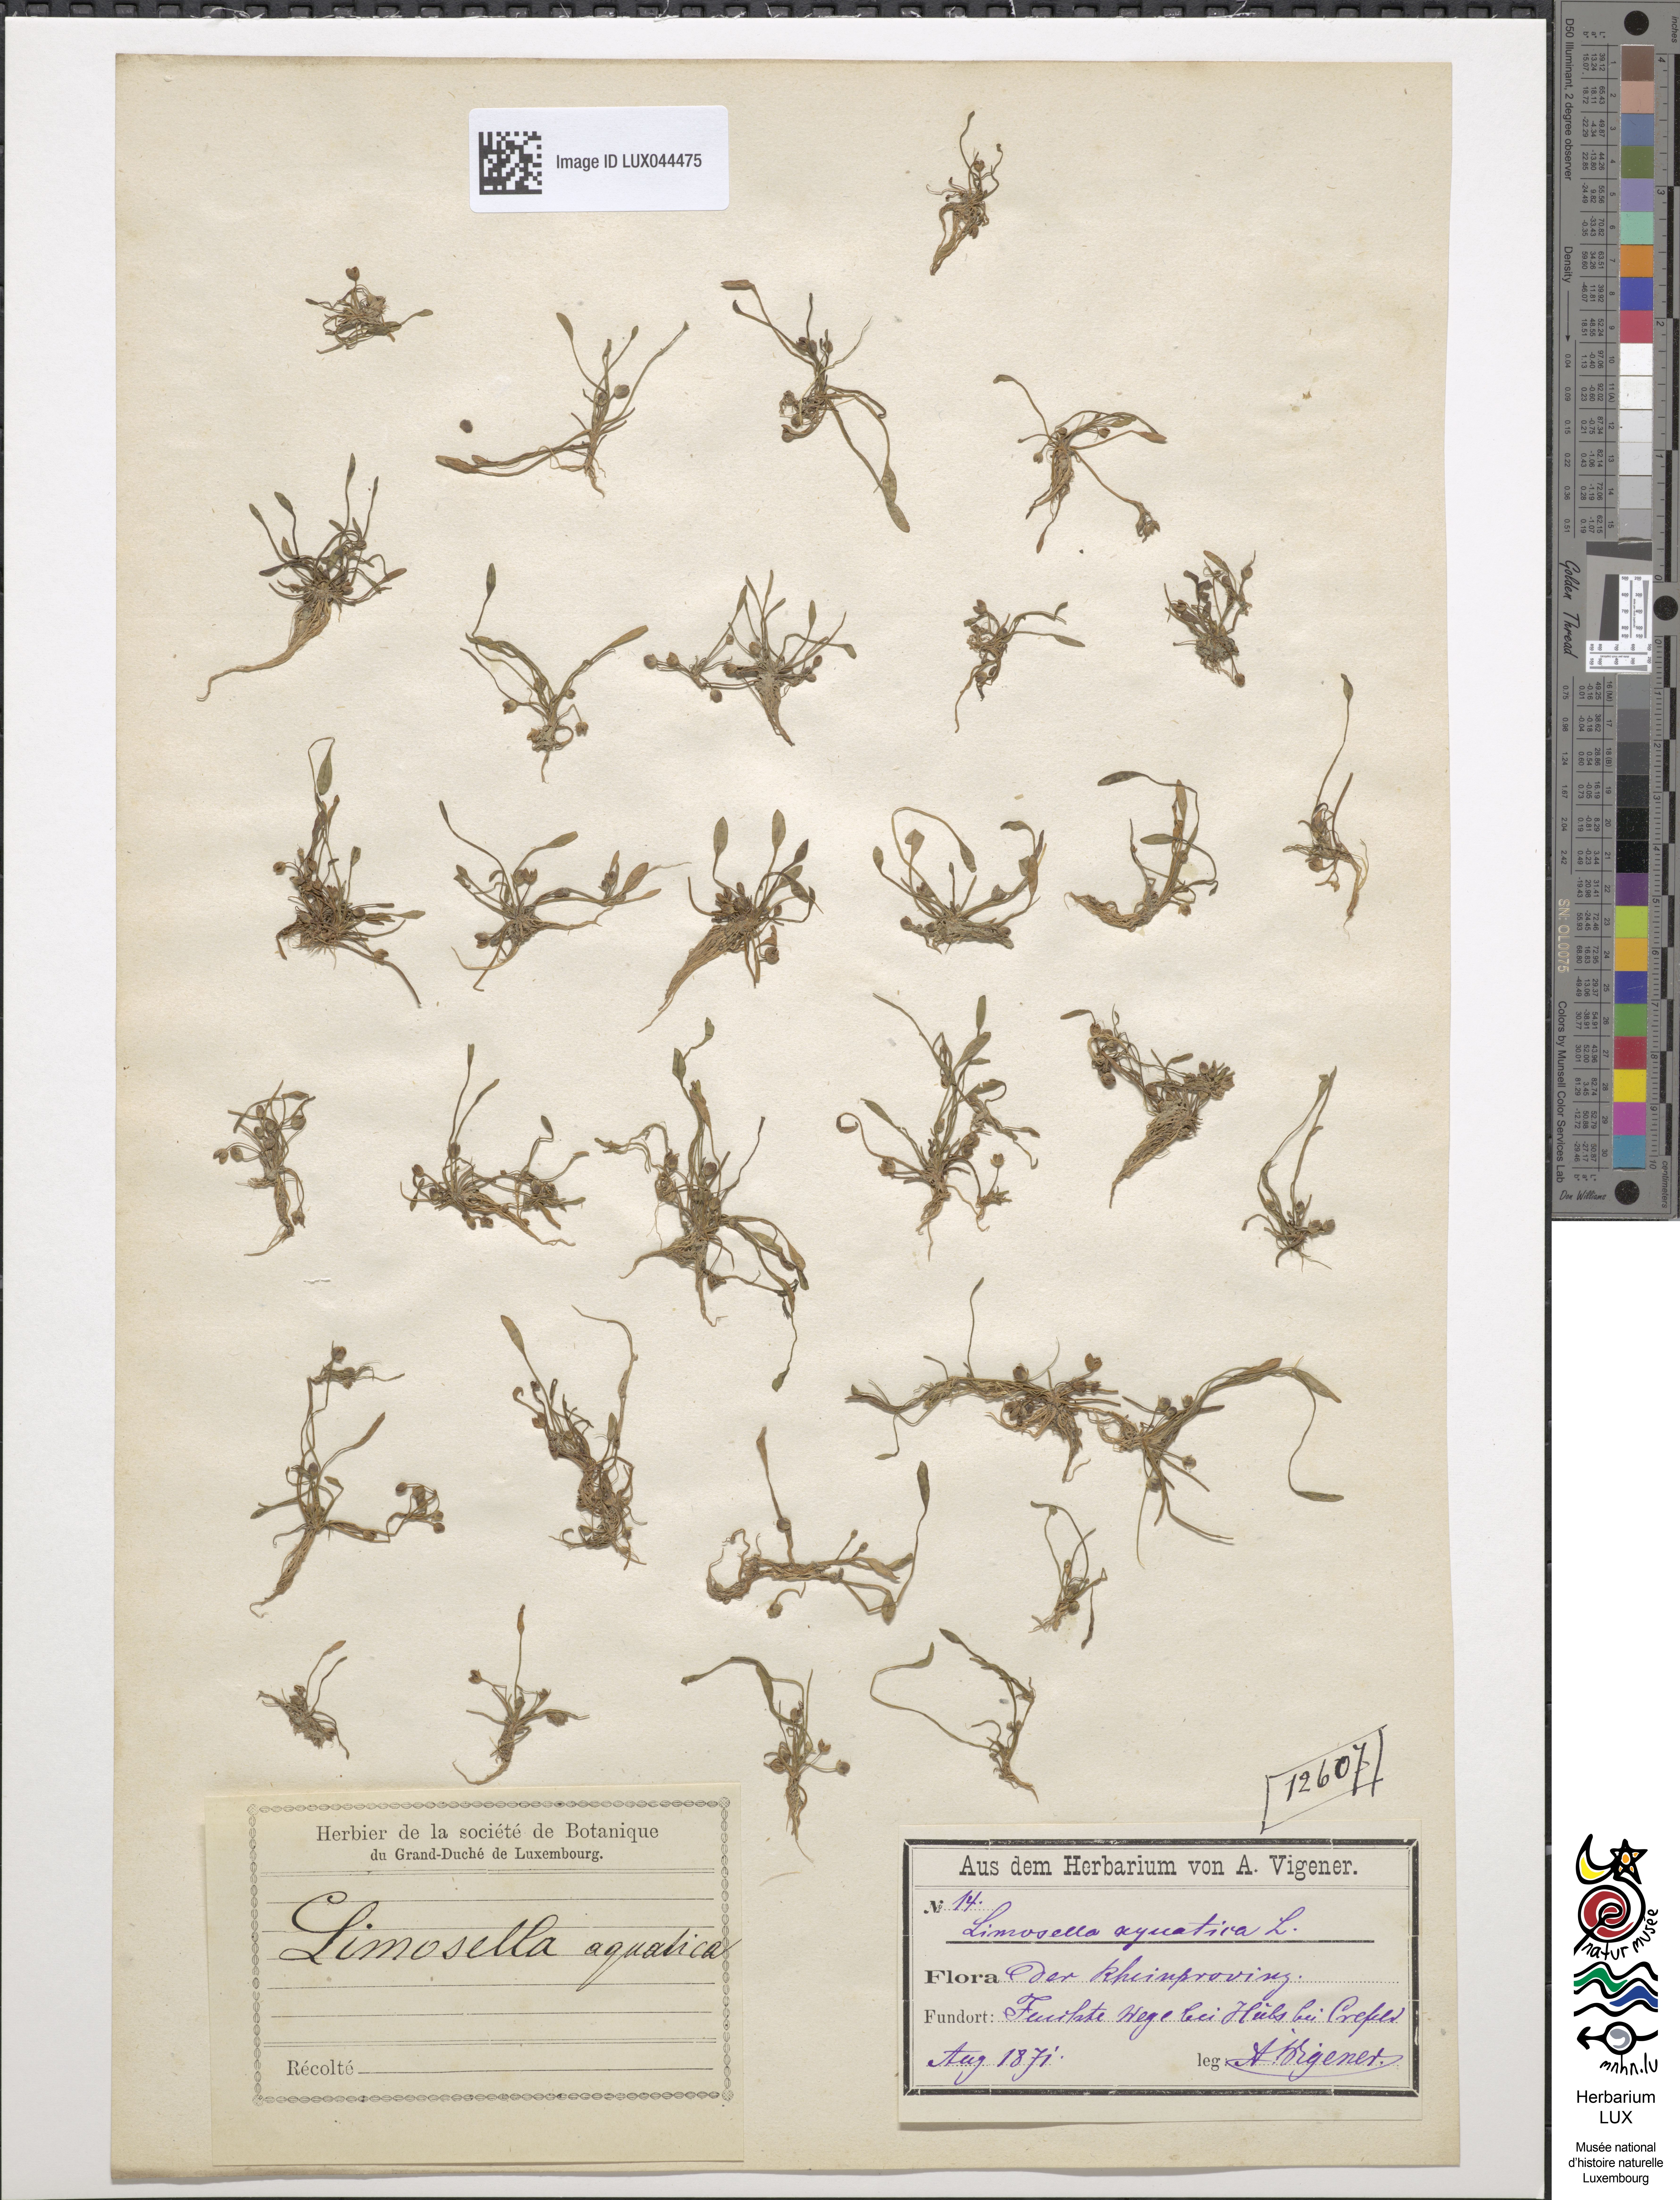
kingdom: Plantae
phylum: Tracheophyta
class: Magnoliopsida
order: Lamiales
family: Scrophulariaceae
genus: Limosella
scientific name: Limosella aquatica
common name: Mudwort
